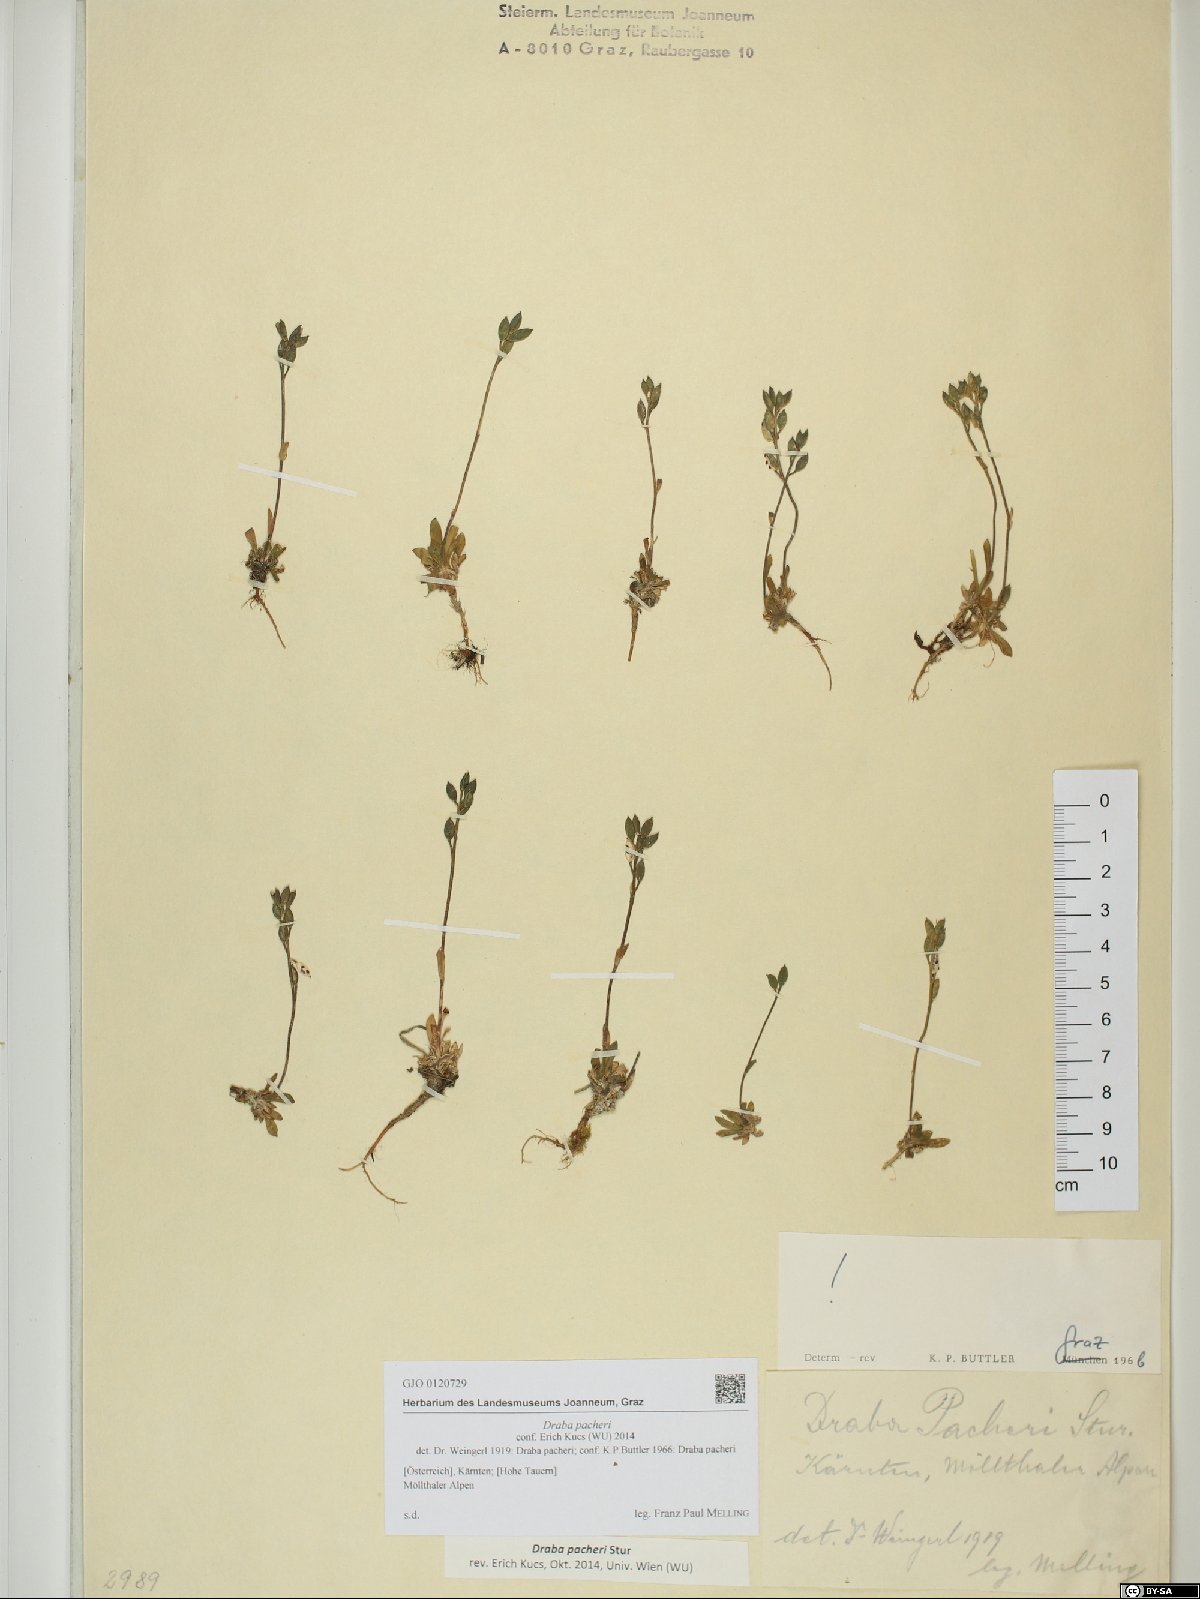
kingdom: Plantae
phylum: Tracheophyta
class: Magnoliopsida
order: Brassicales
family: Brassicaceae
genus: Draba
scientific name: Draba pacheri
